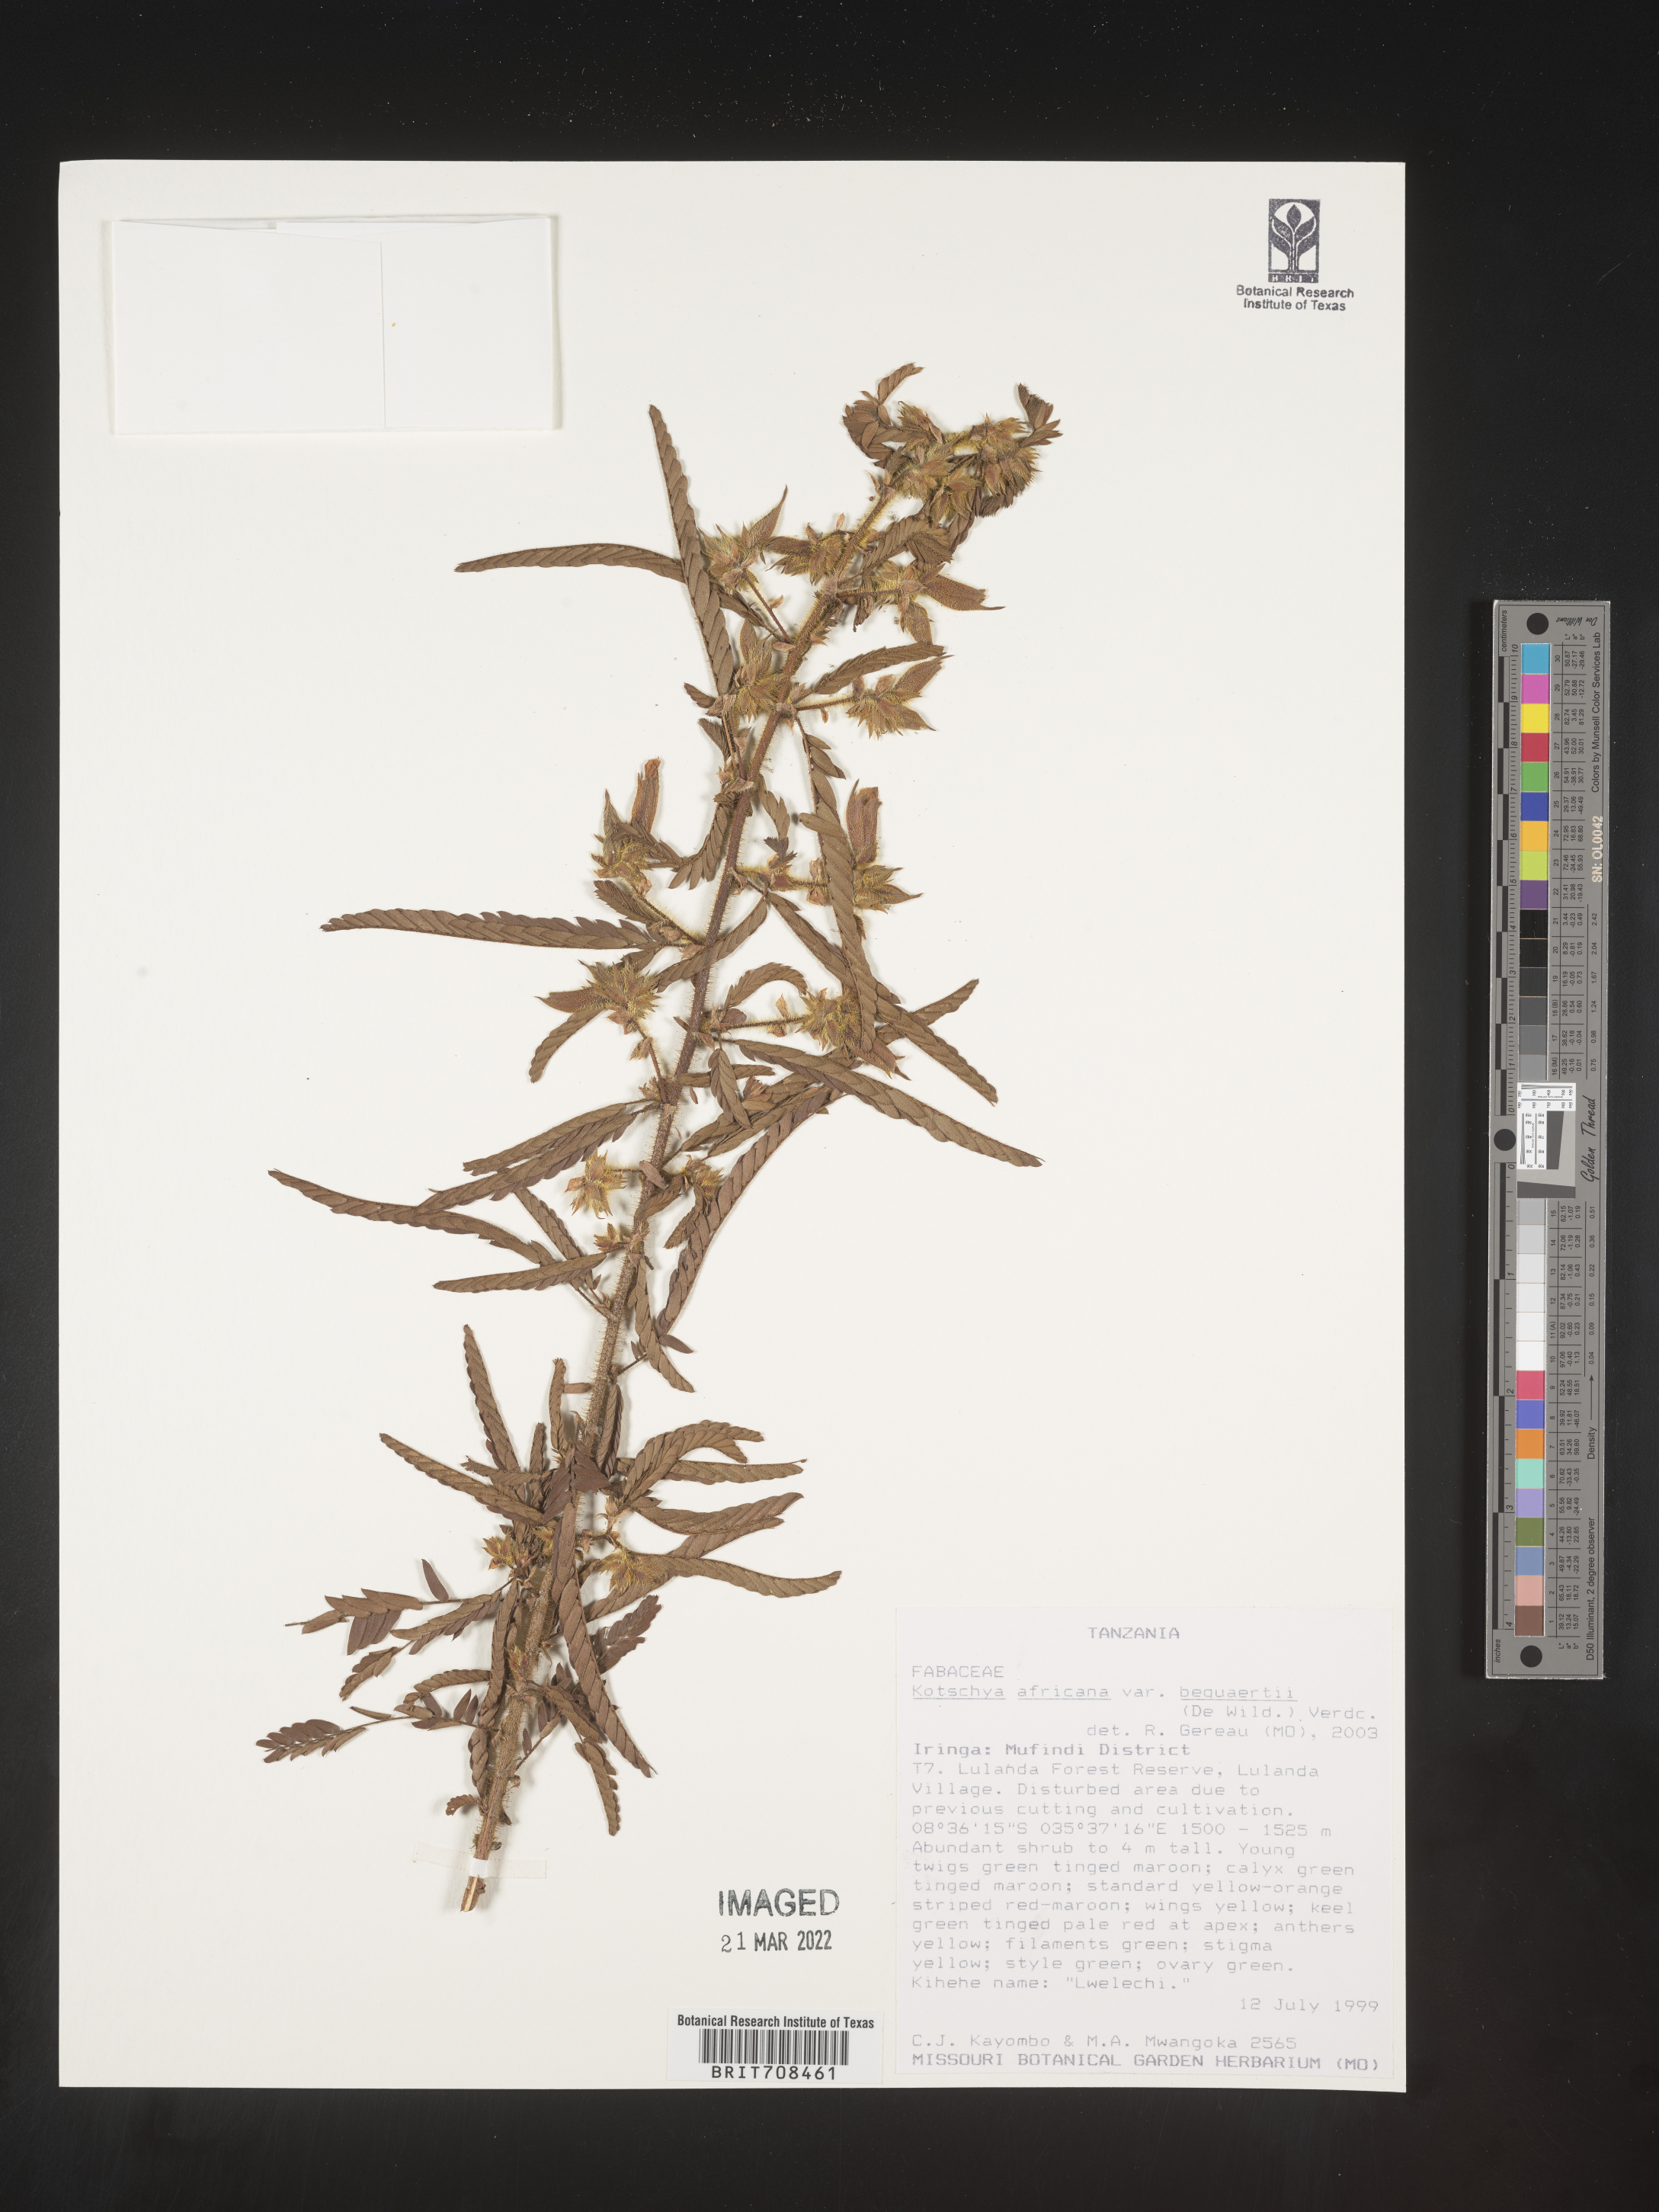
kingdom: Plantae
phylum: Tracheophyta
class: Magnoliopsida
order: Fabales
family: Fabaceae
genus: Kotschya
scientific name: Kotschya
